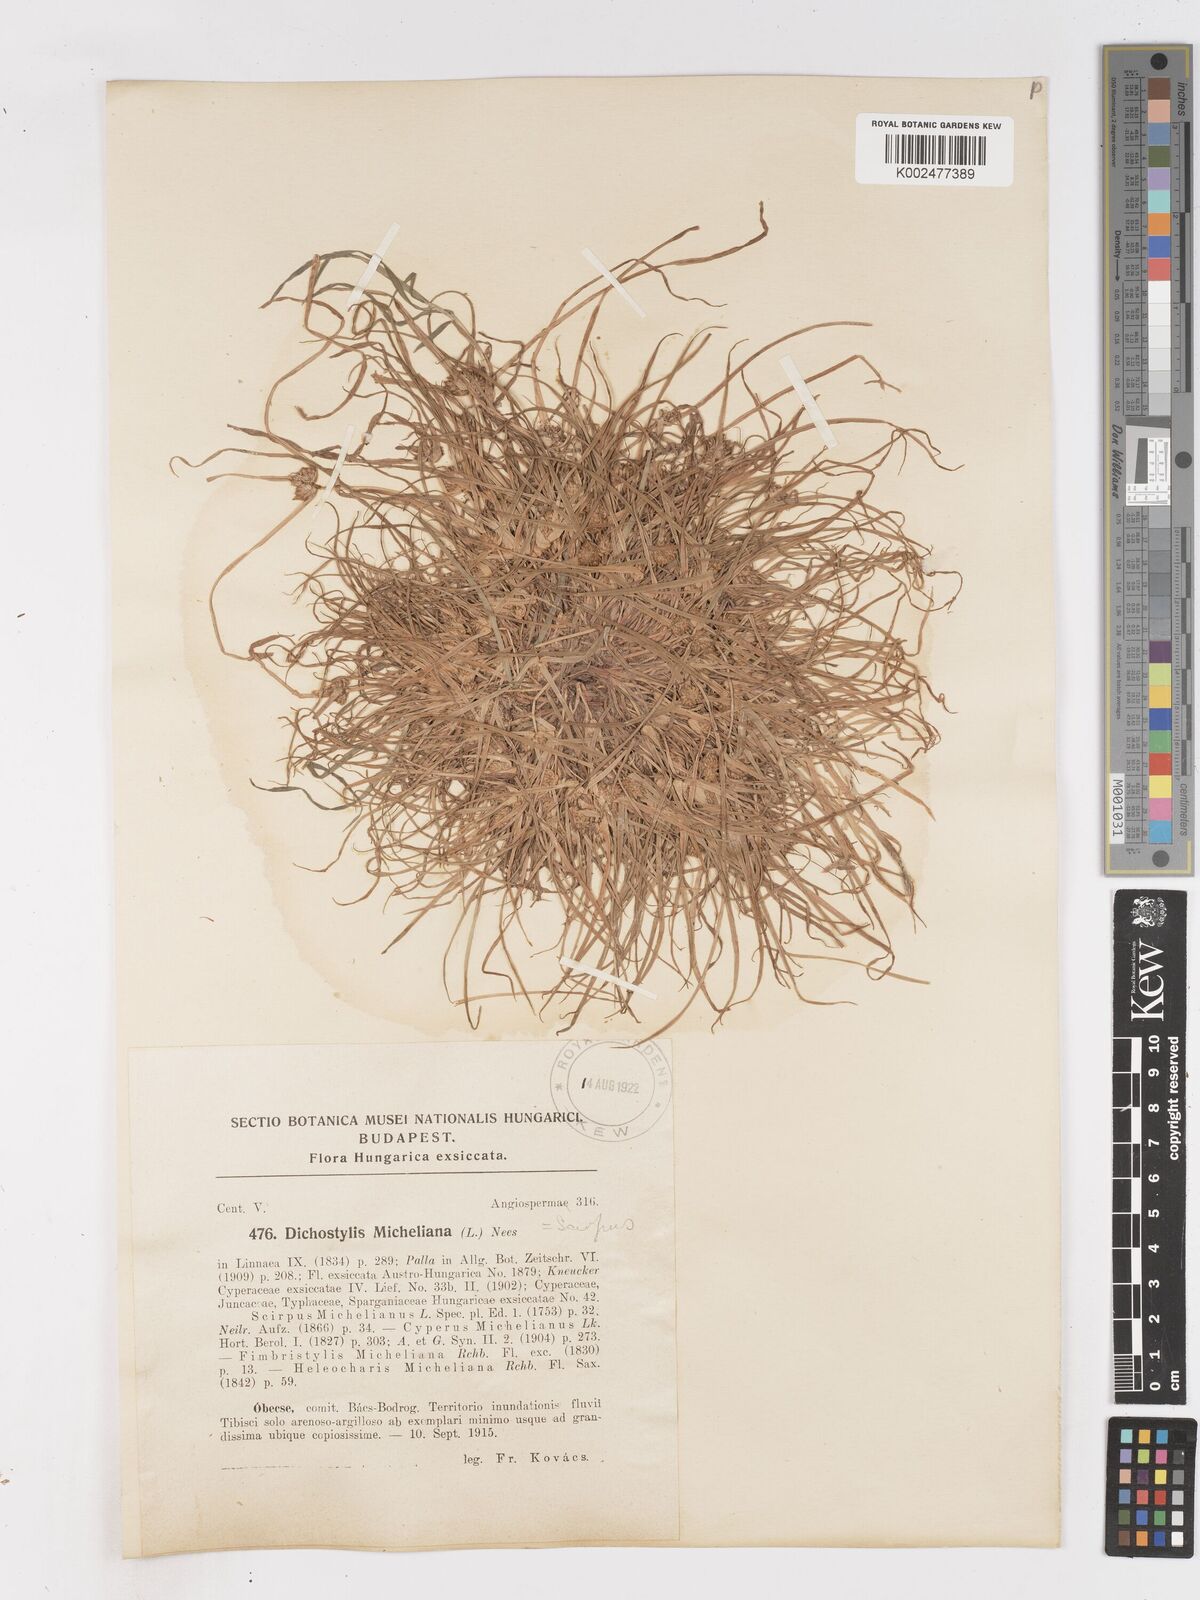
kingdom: Plantae
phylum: Tracheophyta
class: Liliopsida
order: Poales
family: Cyperaceae
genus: Cyperus
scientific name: Cyperus michelianus
